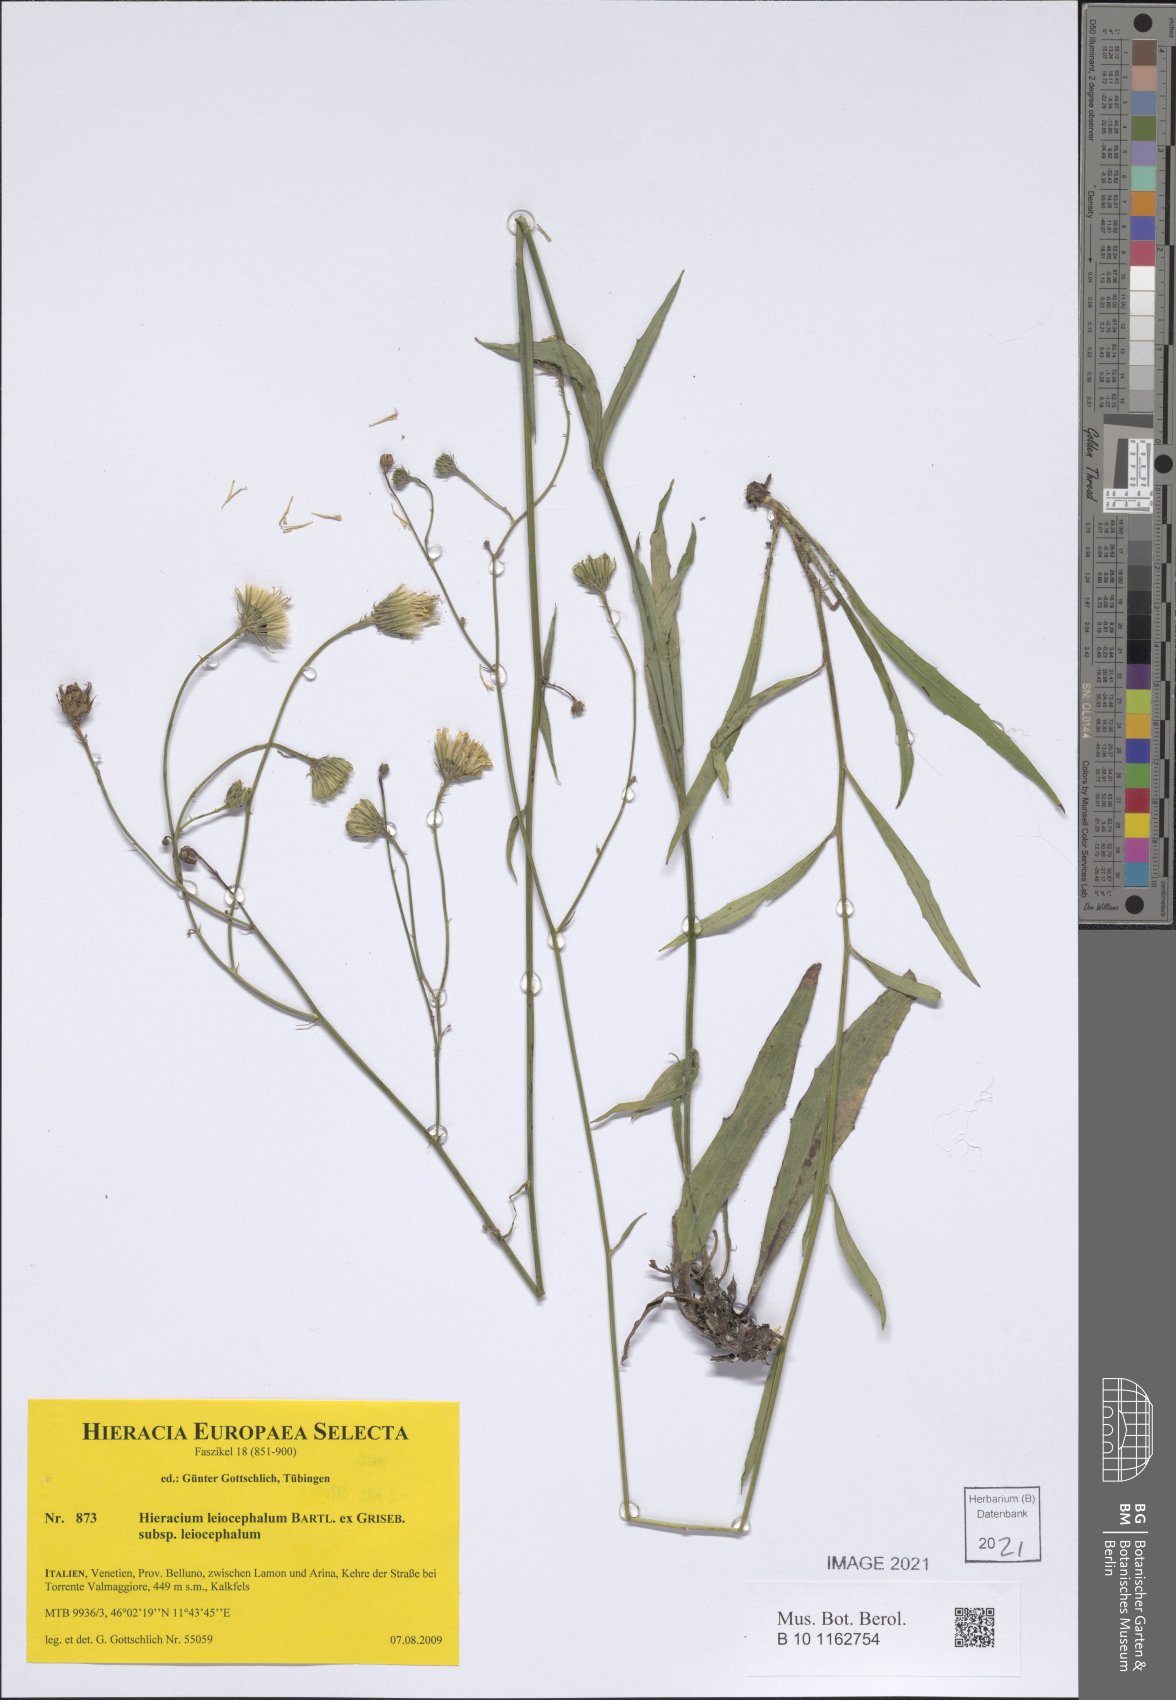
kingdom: Plantae
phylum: Tracheophyta
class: Magnoliopsida
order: Asterales
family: Asteraceae
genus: Hieracium
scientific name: Hieracium leiocephalum
